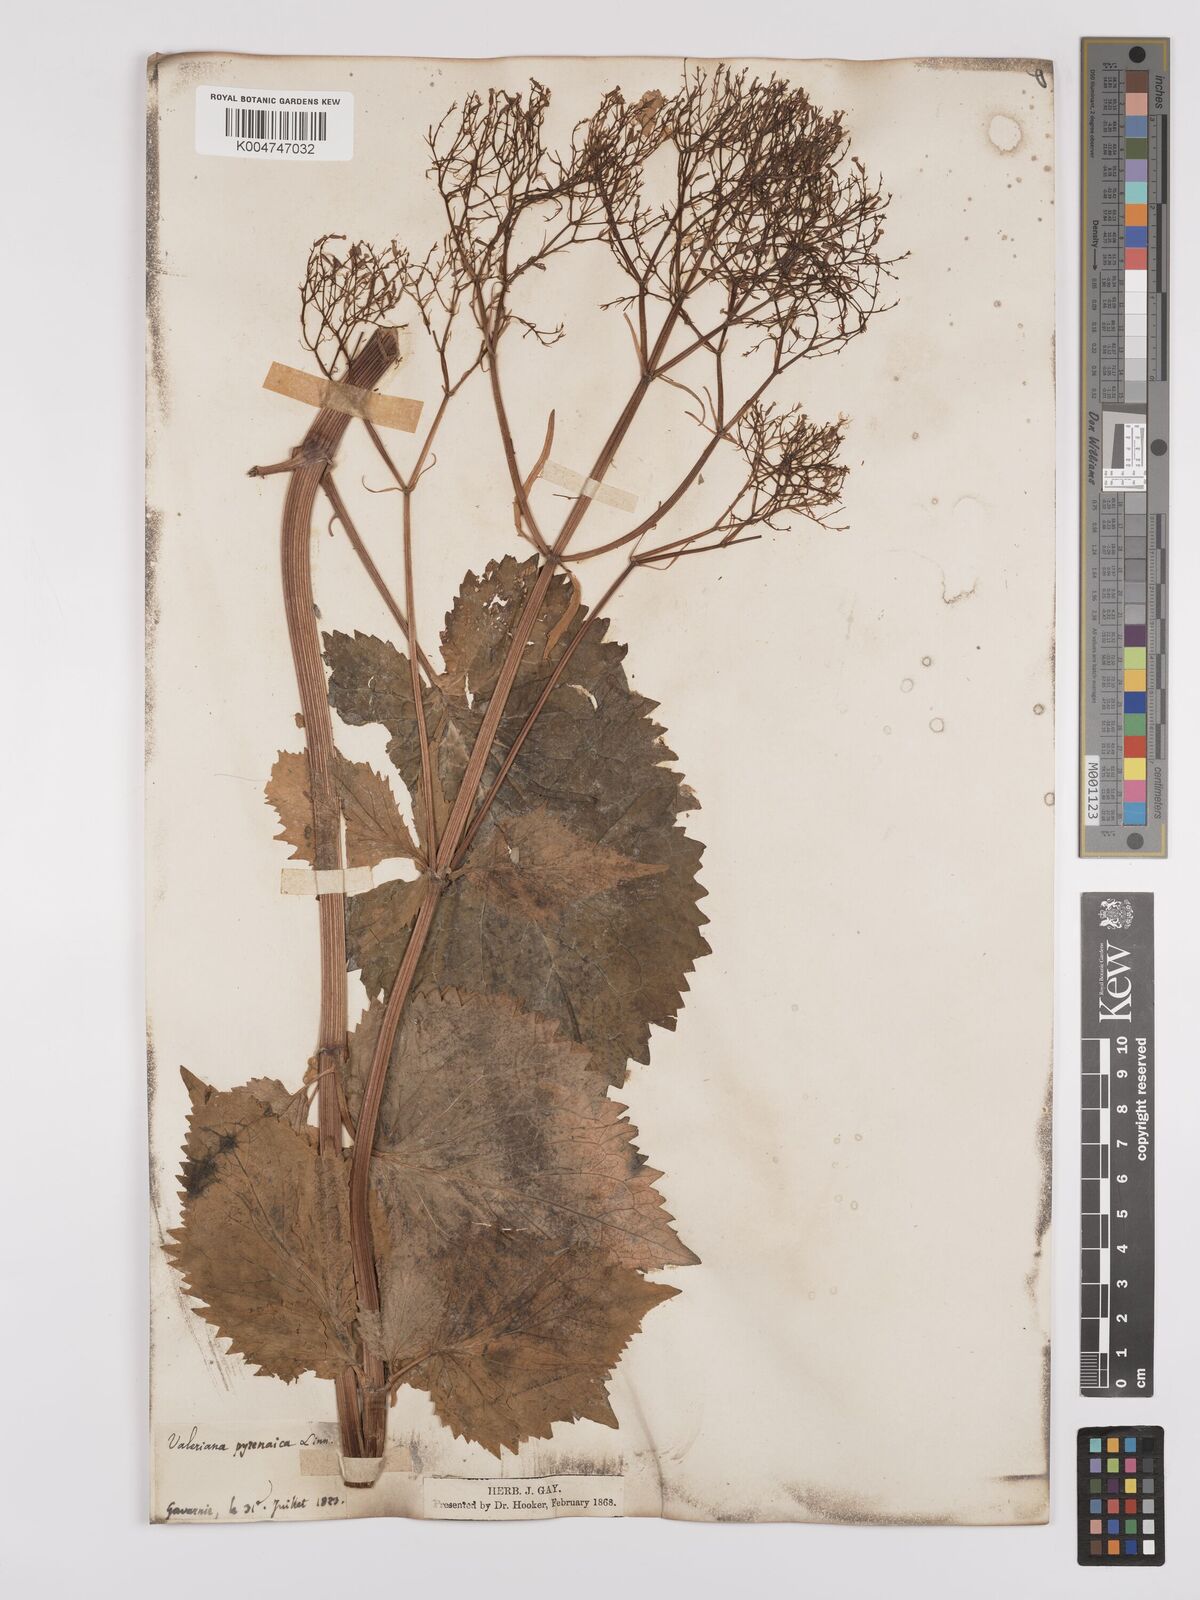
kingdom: Plantae
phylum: Tracheophyta
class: Magnoliopsida
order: Dipsacales
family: Caprifoliaceae
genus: Valeriana
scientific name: Valeriana pyrenaica
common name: Pyrenean valerian
